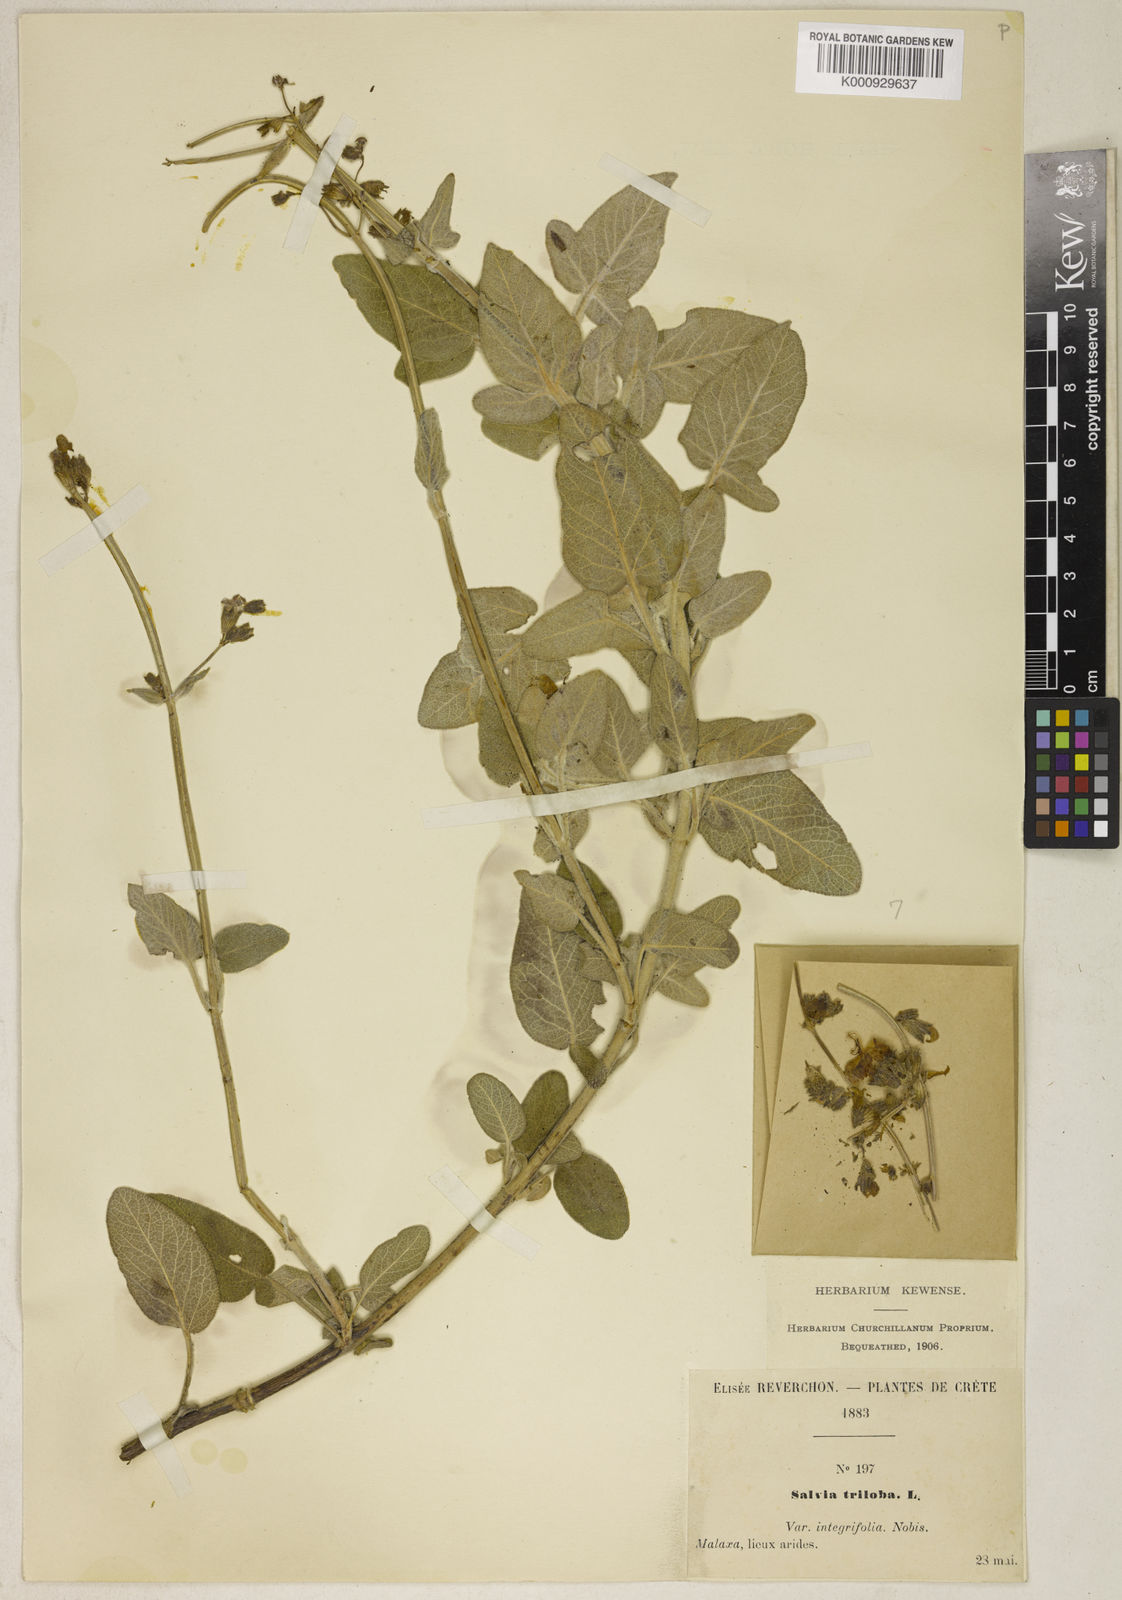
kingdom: Plantae
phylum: Tracheophyta
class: Magnoliopsida
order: Lamiales
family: Lamiaceae
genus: Salvia
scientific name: Salvia fruticosa
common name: Greek sage
